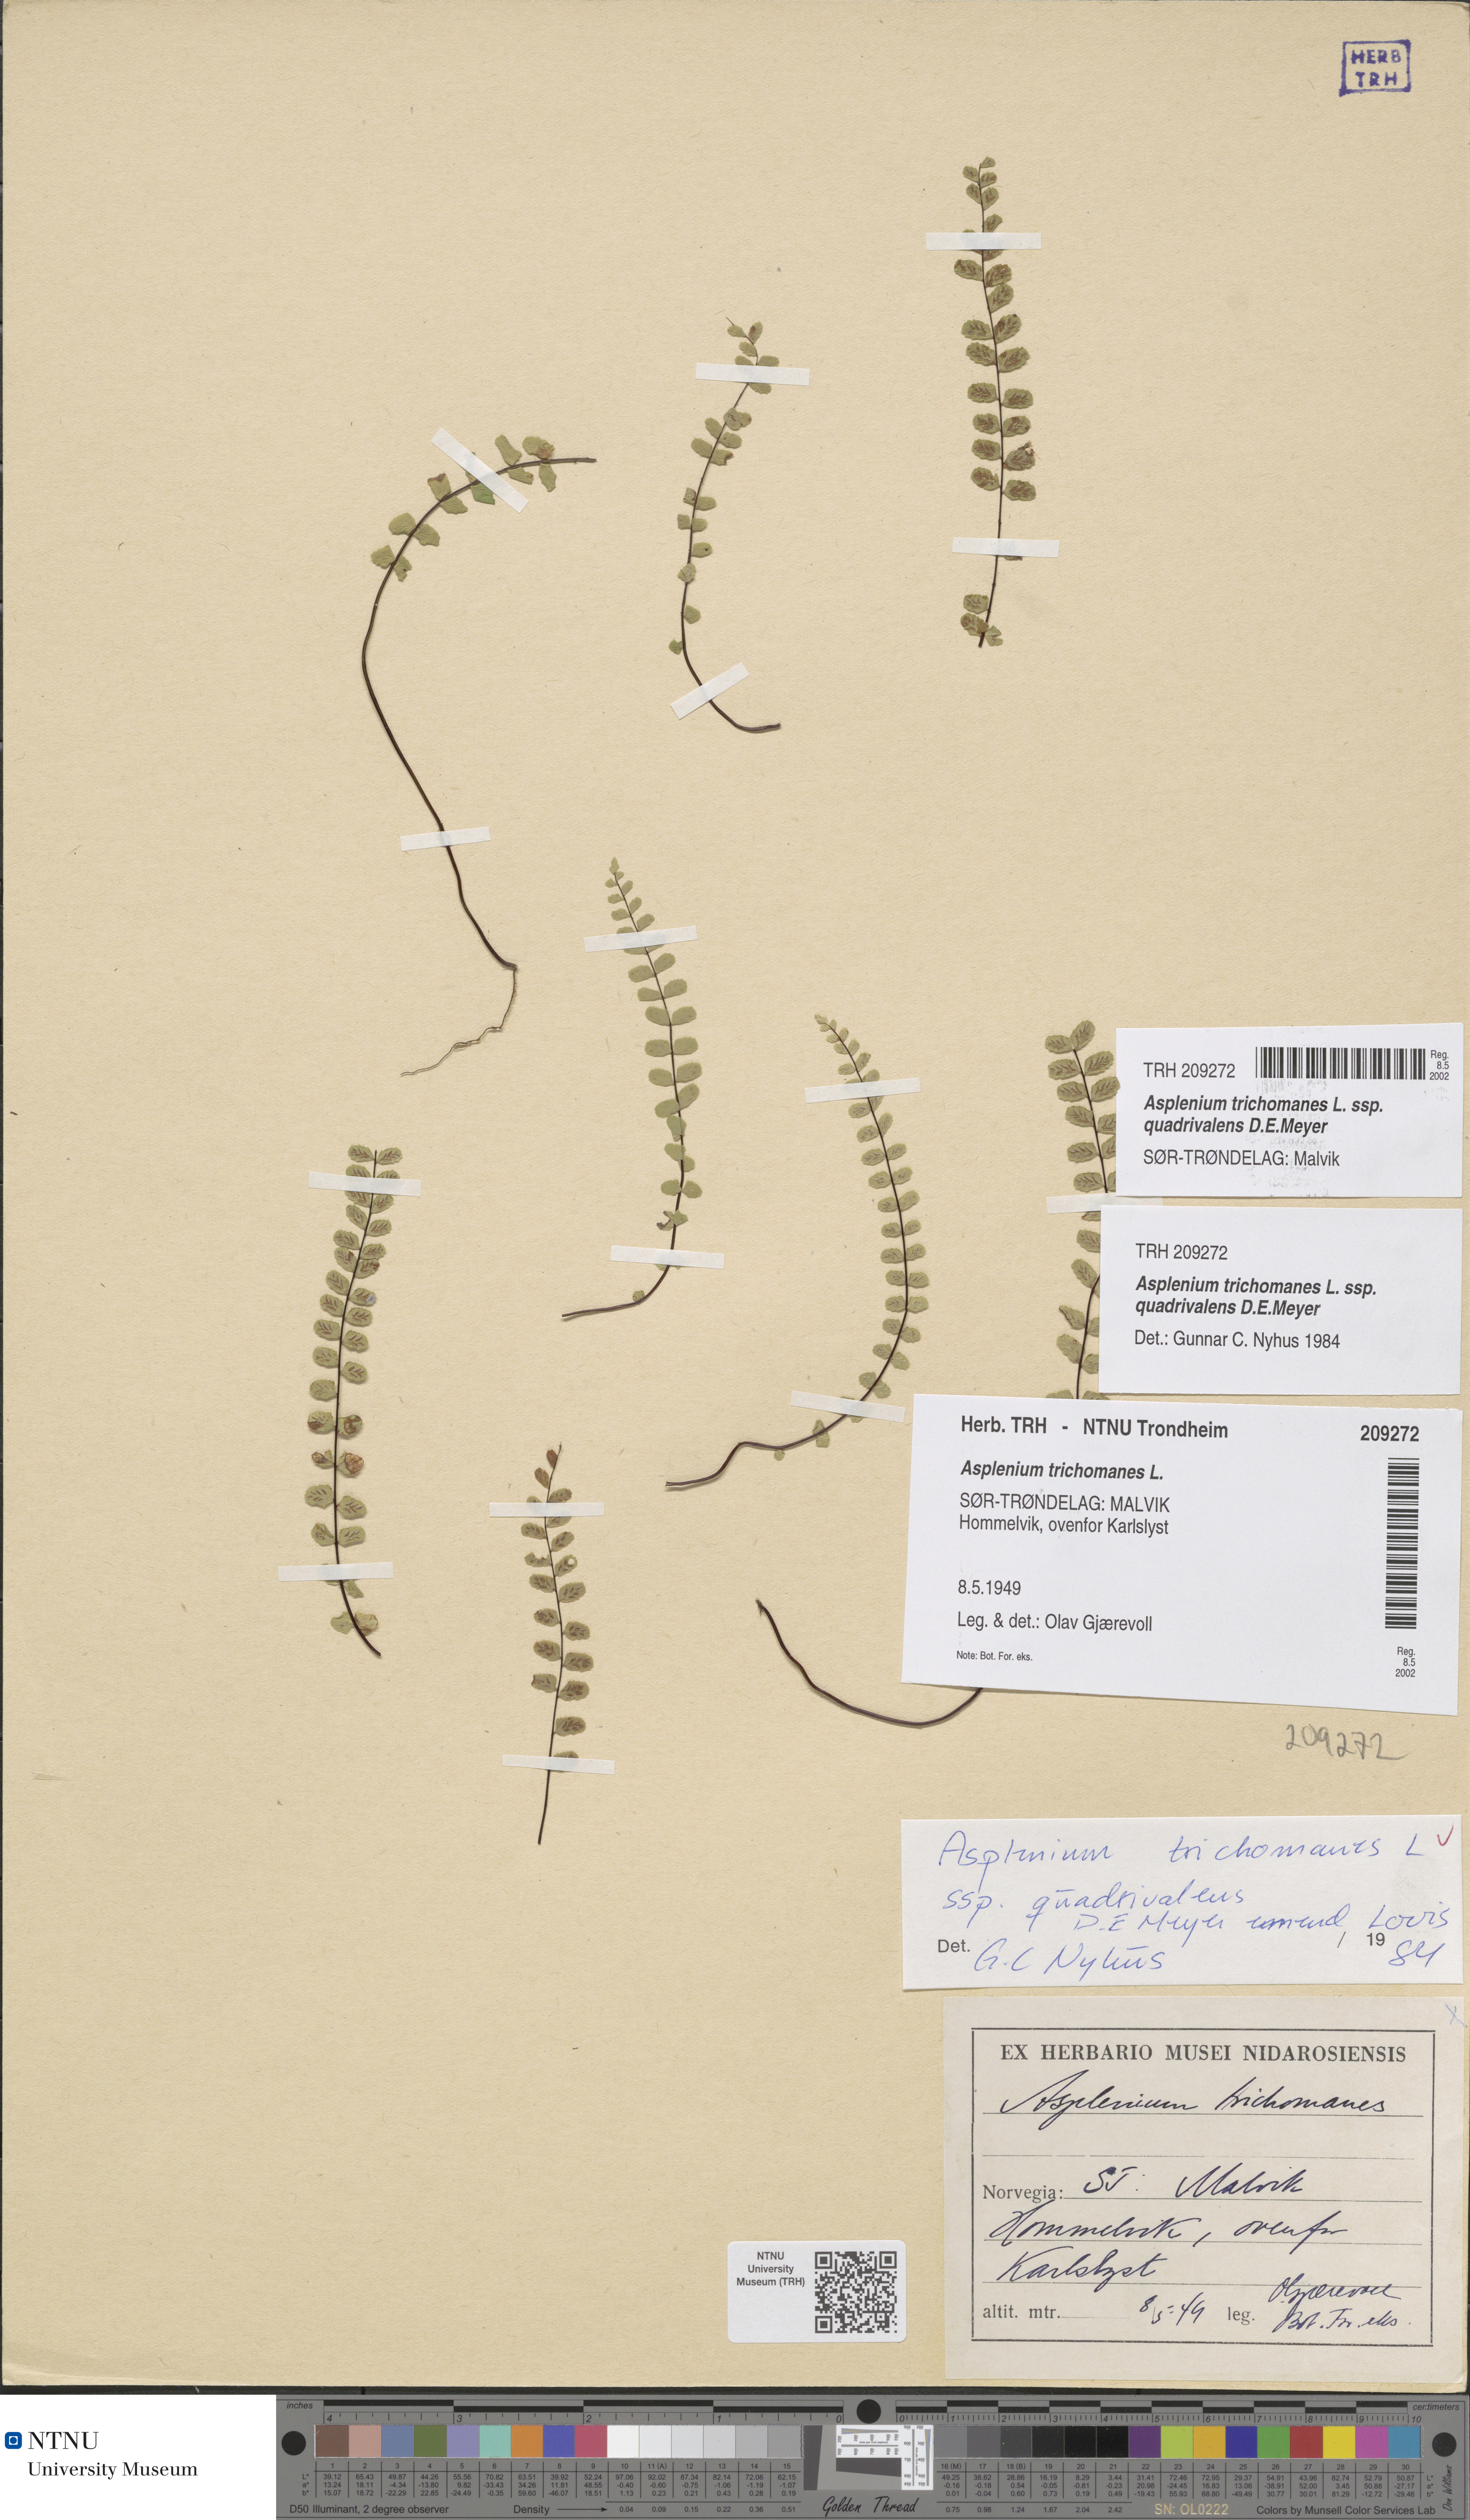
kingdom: Plantae
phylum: Tracheophyta
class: Polypodiopsida
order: Polypodiales
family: Aspleniaceae
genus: Asplenium
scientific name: Asplenium quadrivalens
